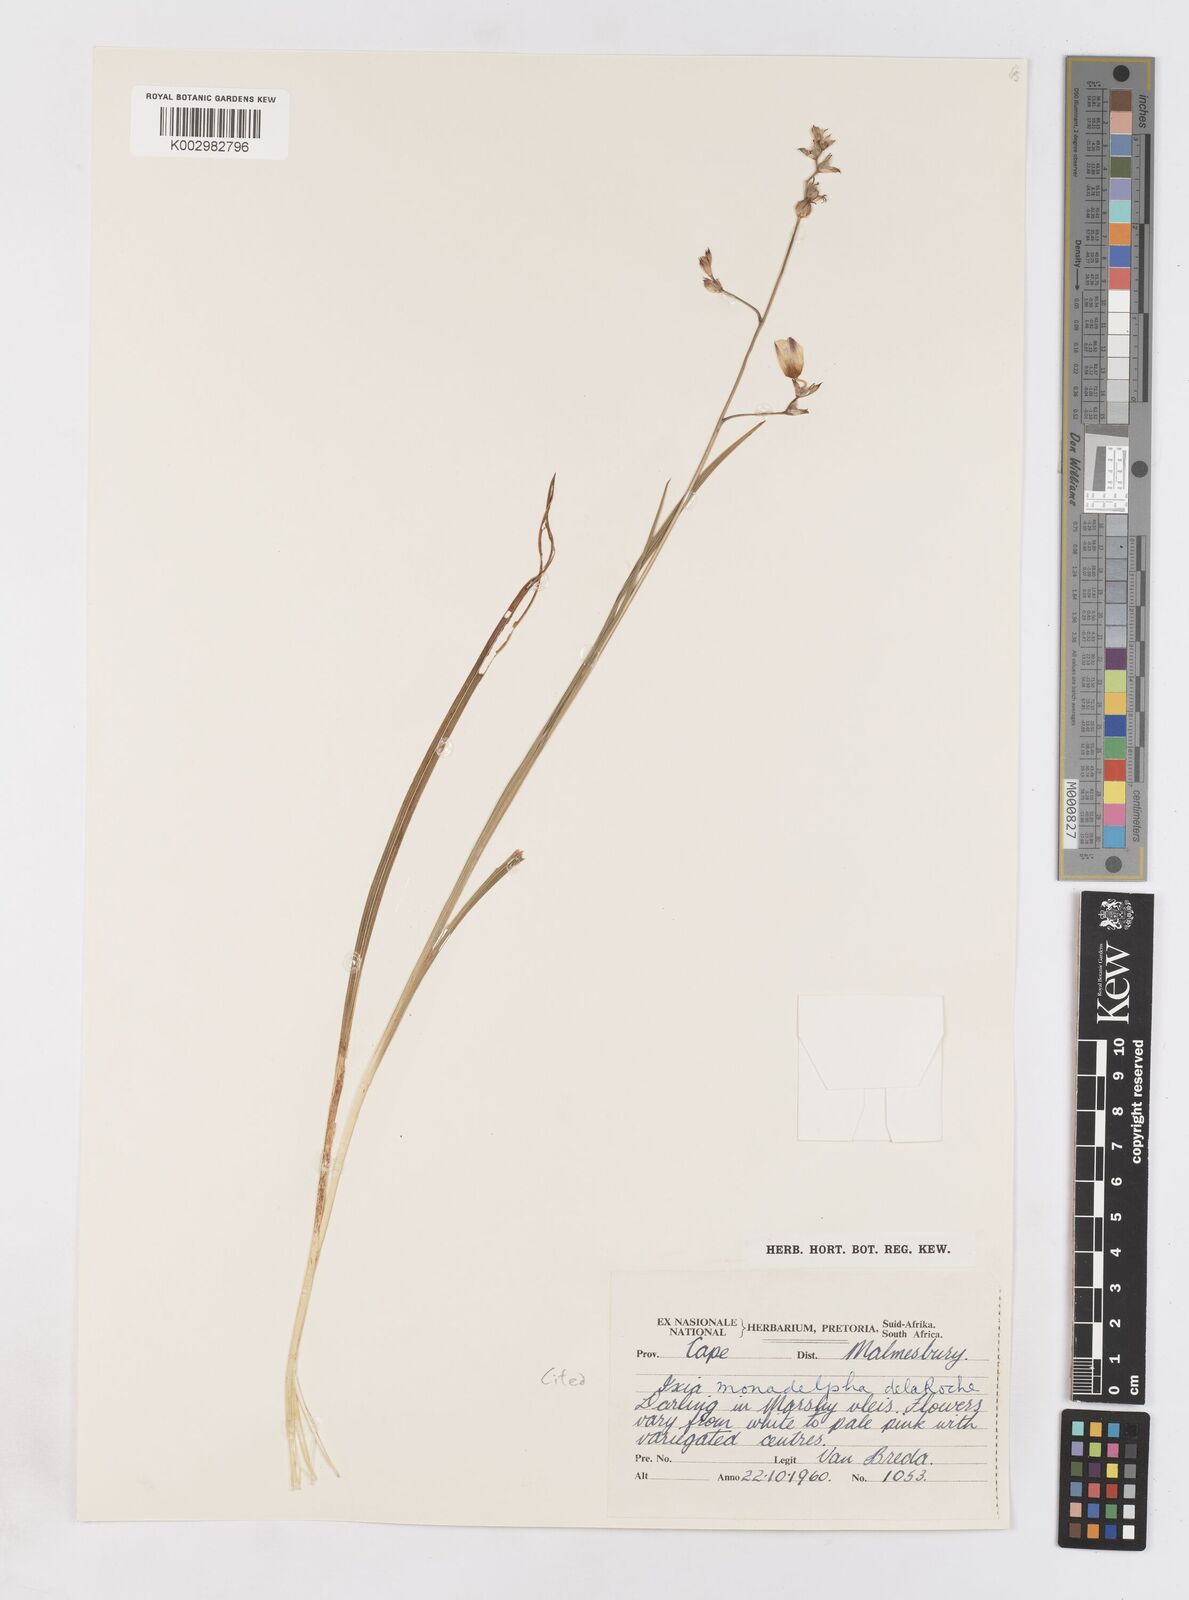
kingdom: Plantae
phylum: Tracheophyta
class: Liliopsida
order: Asparagales
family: Iridaceae
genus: Ixia
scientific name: Ixia monadelpha
